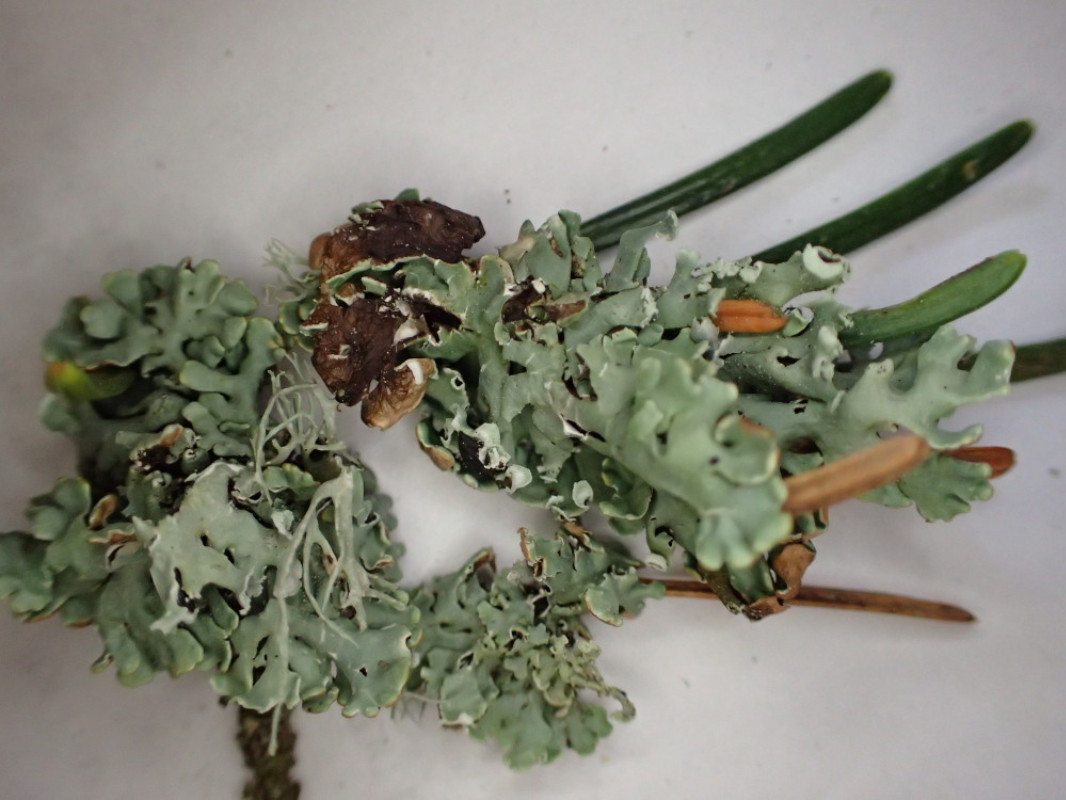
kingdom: Fungi
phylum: Ascomycota
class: Lecanoromycetes
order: Lecanorales
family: Parmeliaceae
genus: Hypogymnia
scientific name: Hypogymnia physodes
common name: almindelig kvistlav
